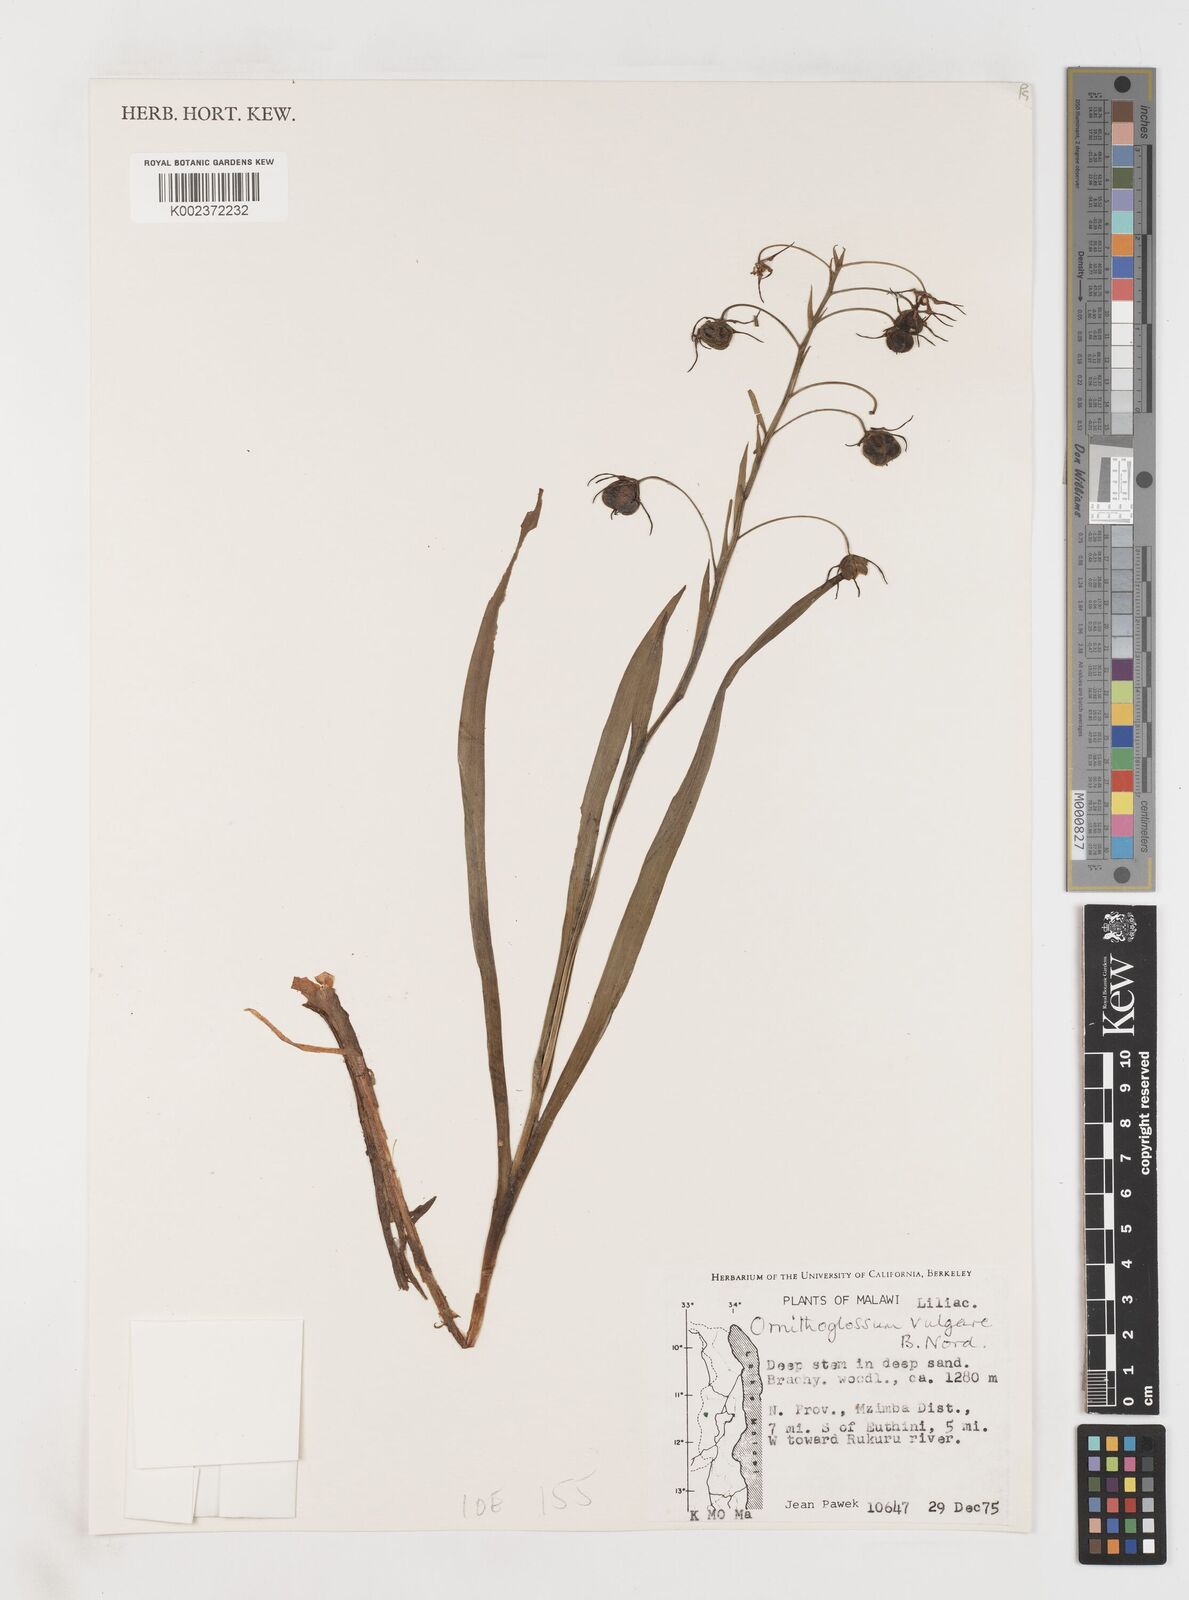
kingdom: Plantae
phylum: Tracheophyta
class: Liliopsida
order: Liliales
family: Colchicaceae
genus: Ornithoglossum
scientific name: Ornithoglossum vulgare
